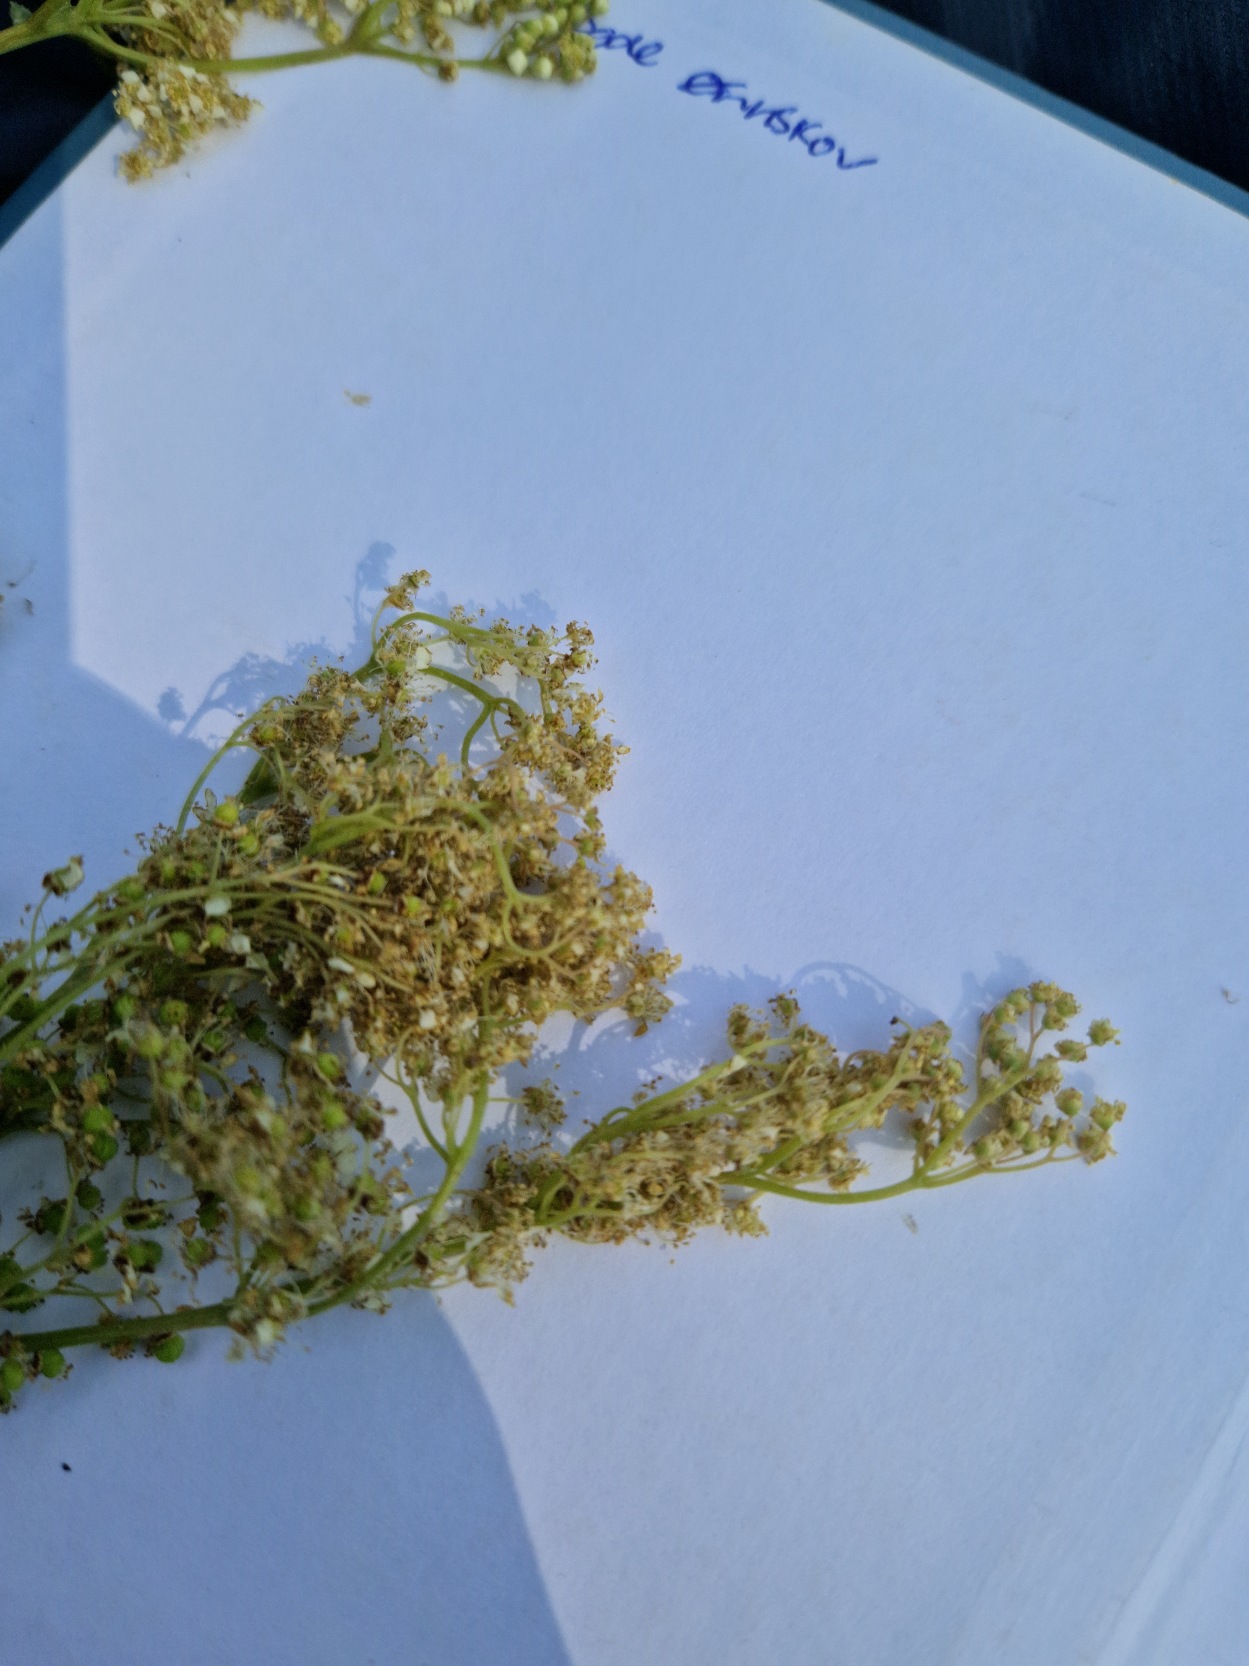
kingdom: Plantae
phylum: Tracheophyta
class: Magnoliopsida
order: Rosales
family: Rosaceae
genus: Filipendula
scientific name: Filipendula ulmaria
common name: Almindelig mjødurt
